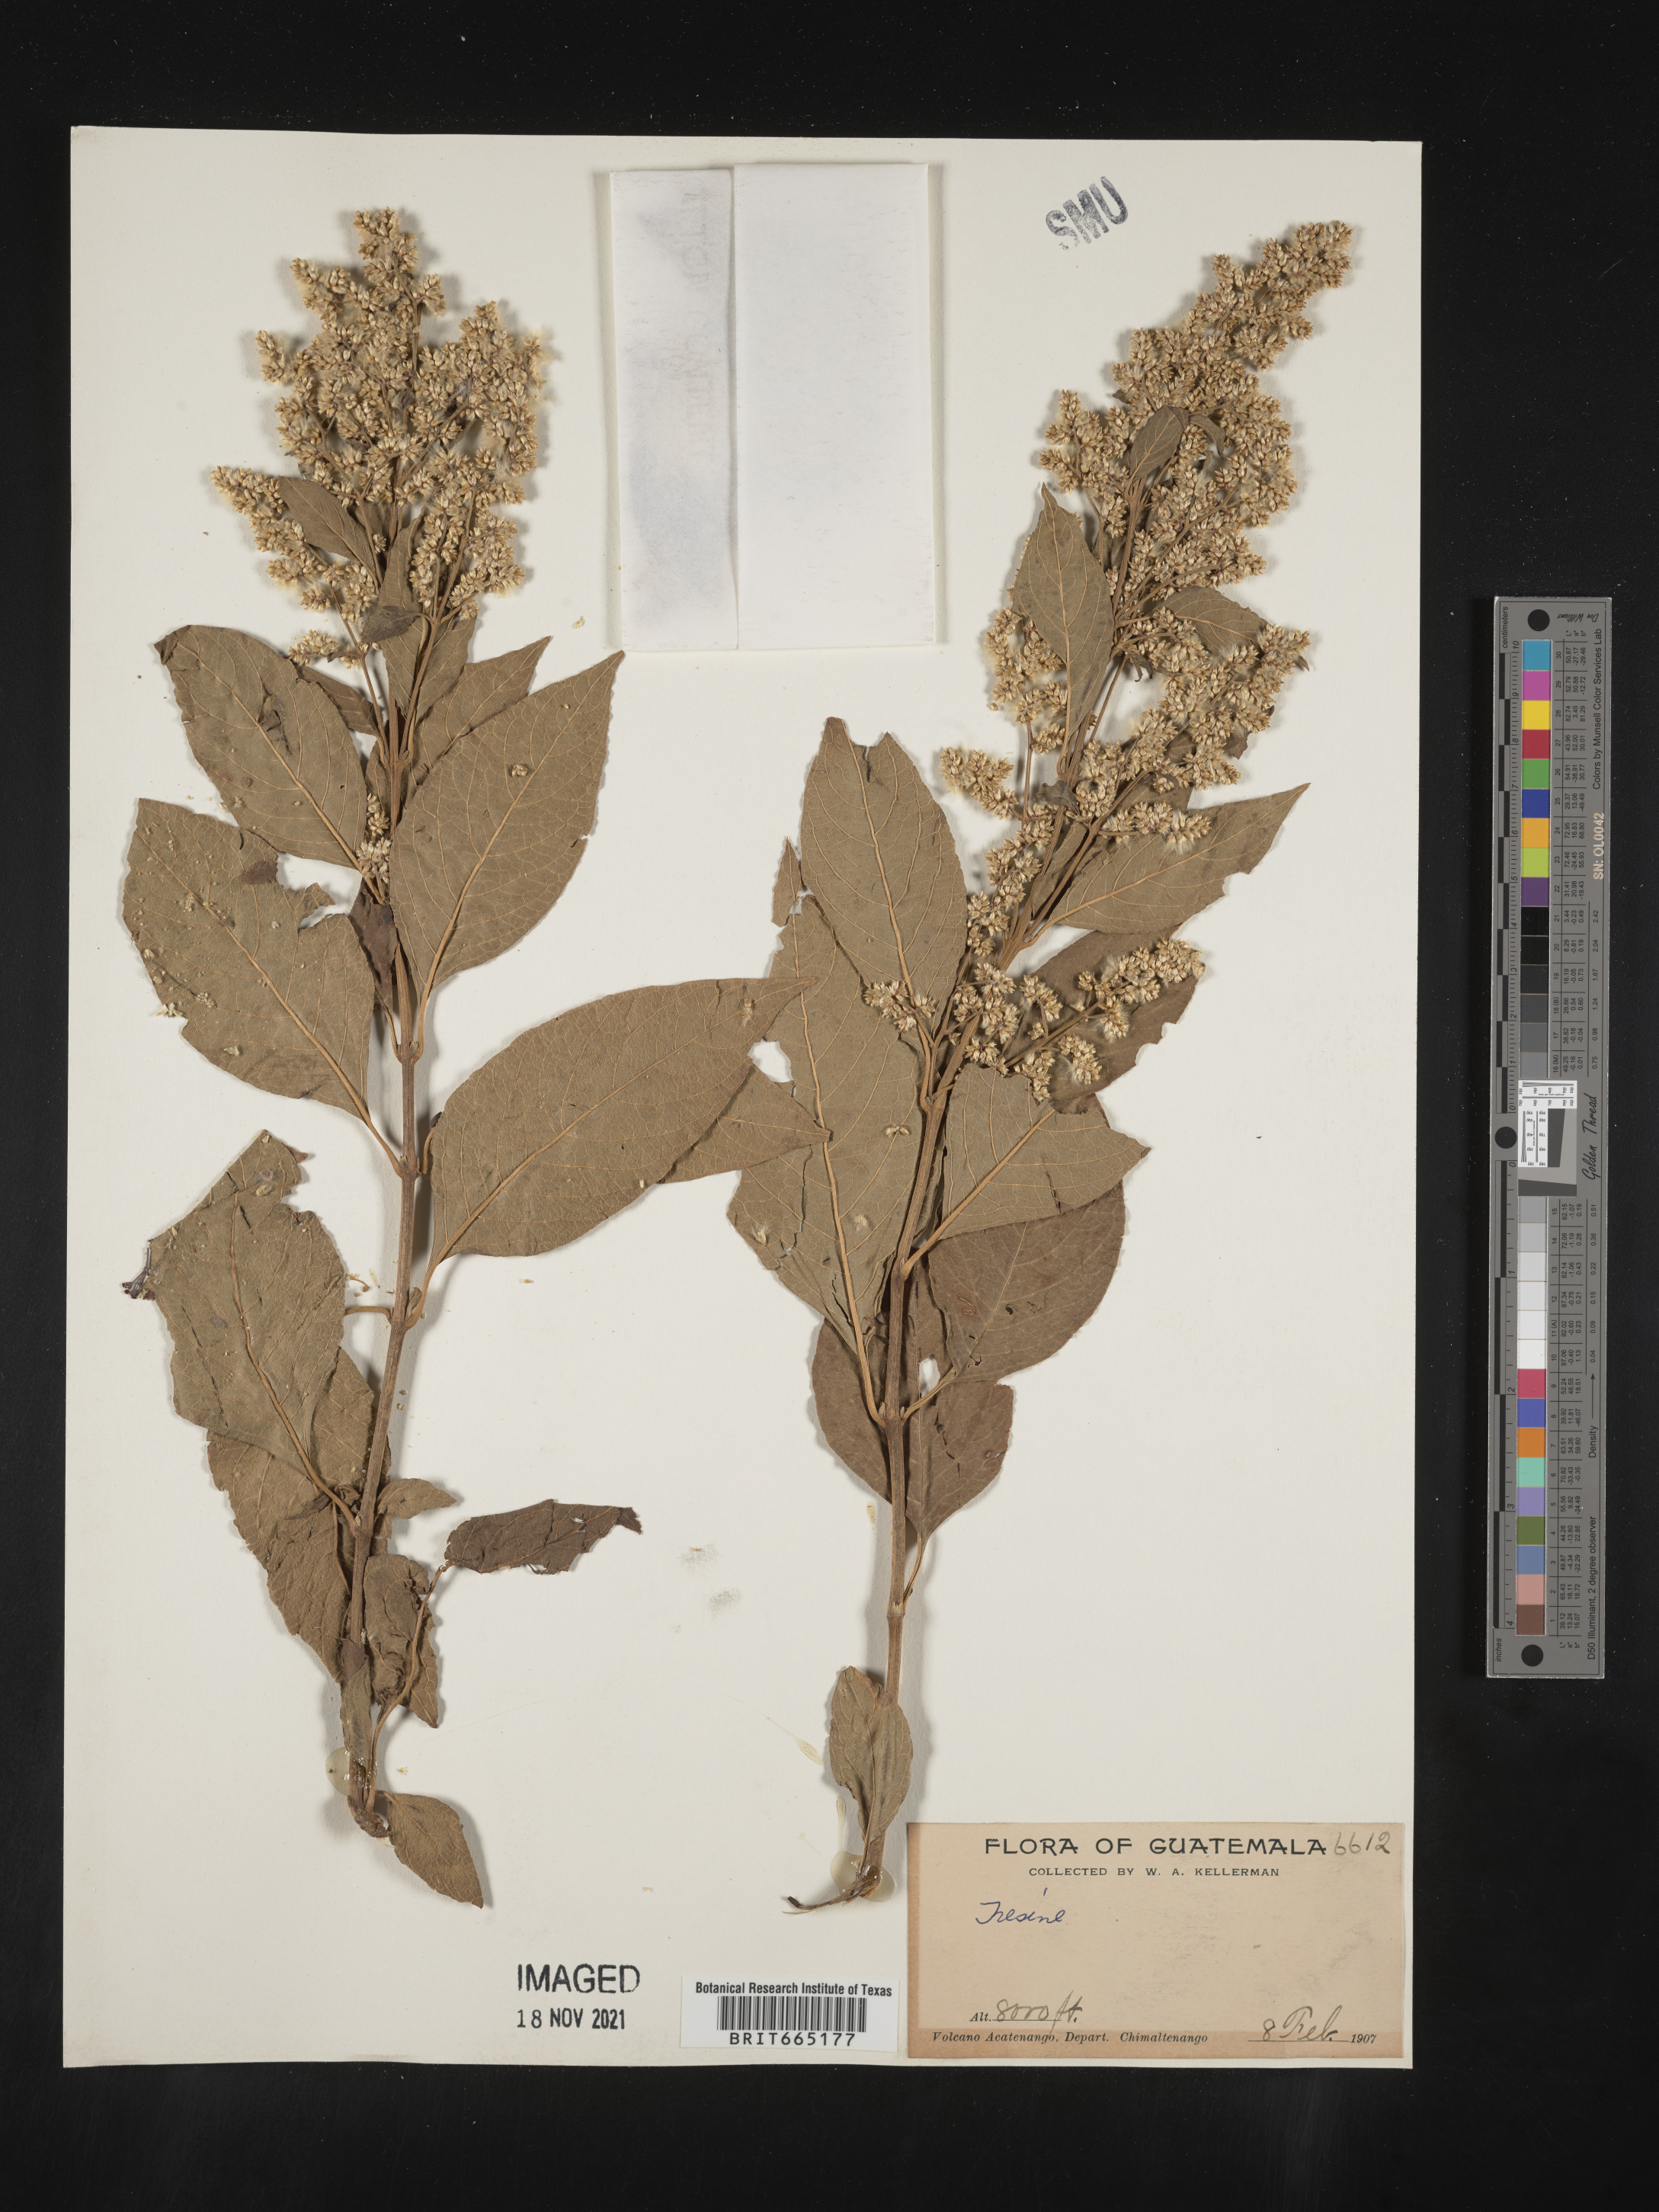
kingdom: Plantae
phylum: Tracheophyta
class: Magnoliopsida
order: Caryophyllales
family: Amaranthaceae
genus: Iresine
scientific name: Iresine
